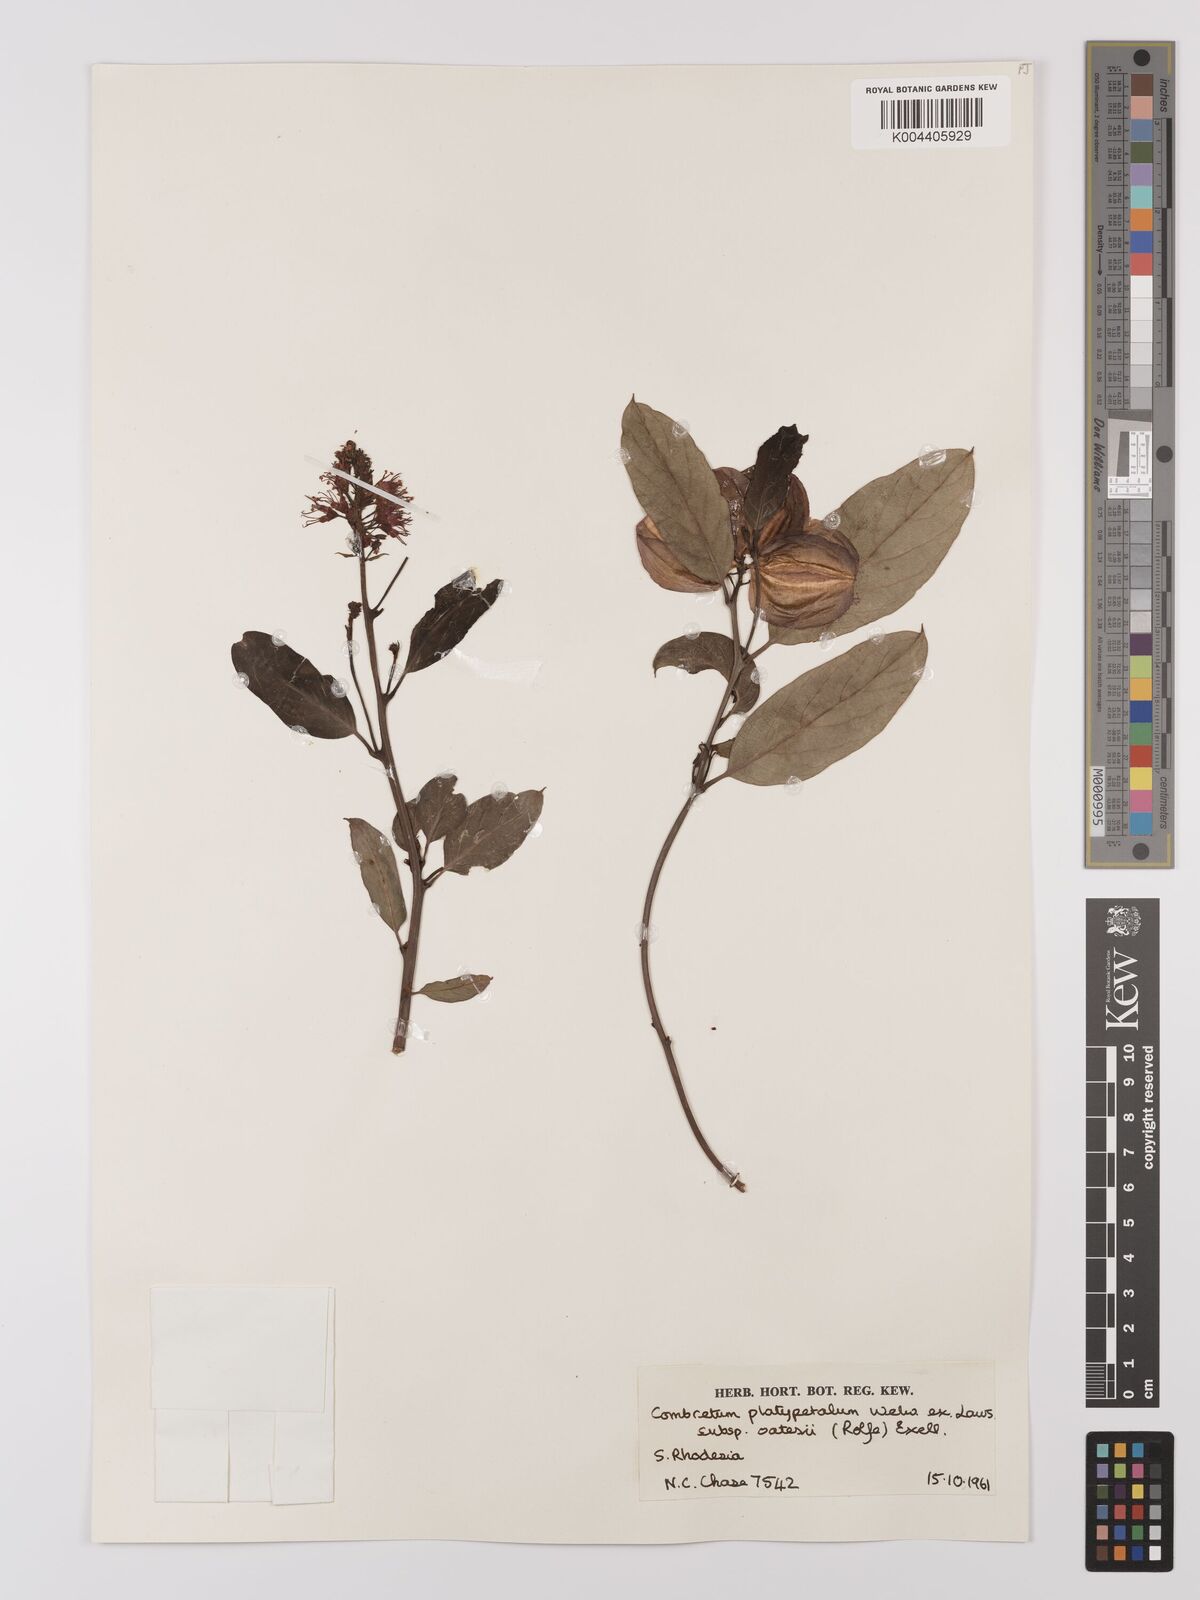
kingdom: Plantae
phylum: Tracheophyta
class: Magnoliopsida
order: Myrtales
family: Combretaceae
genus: Combretum
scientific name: Combretum platypetalum
